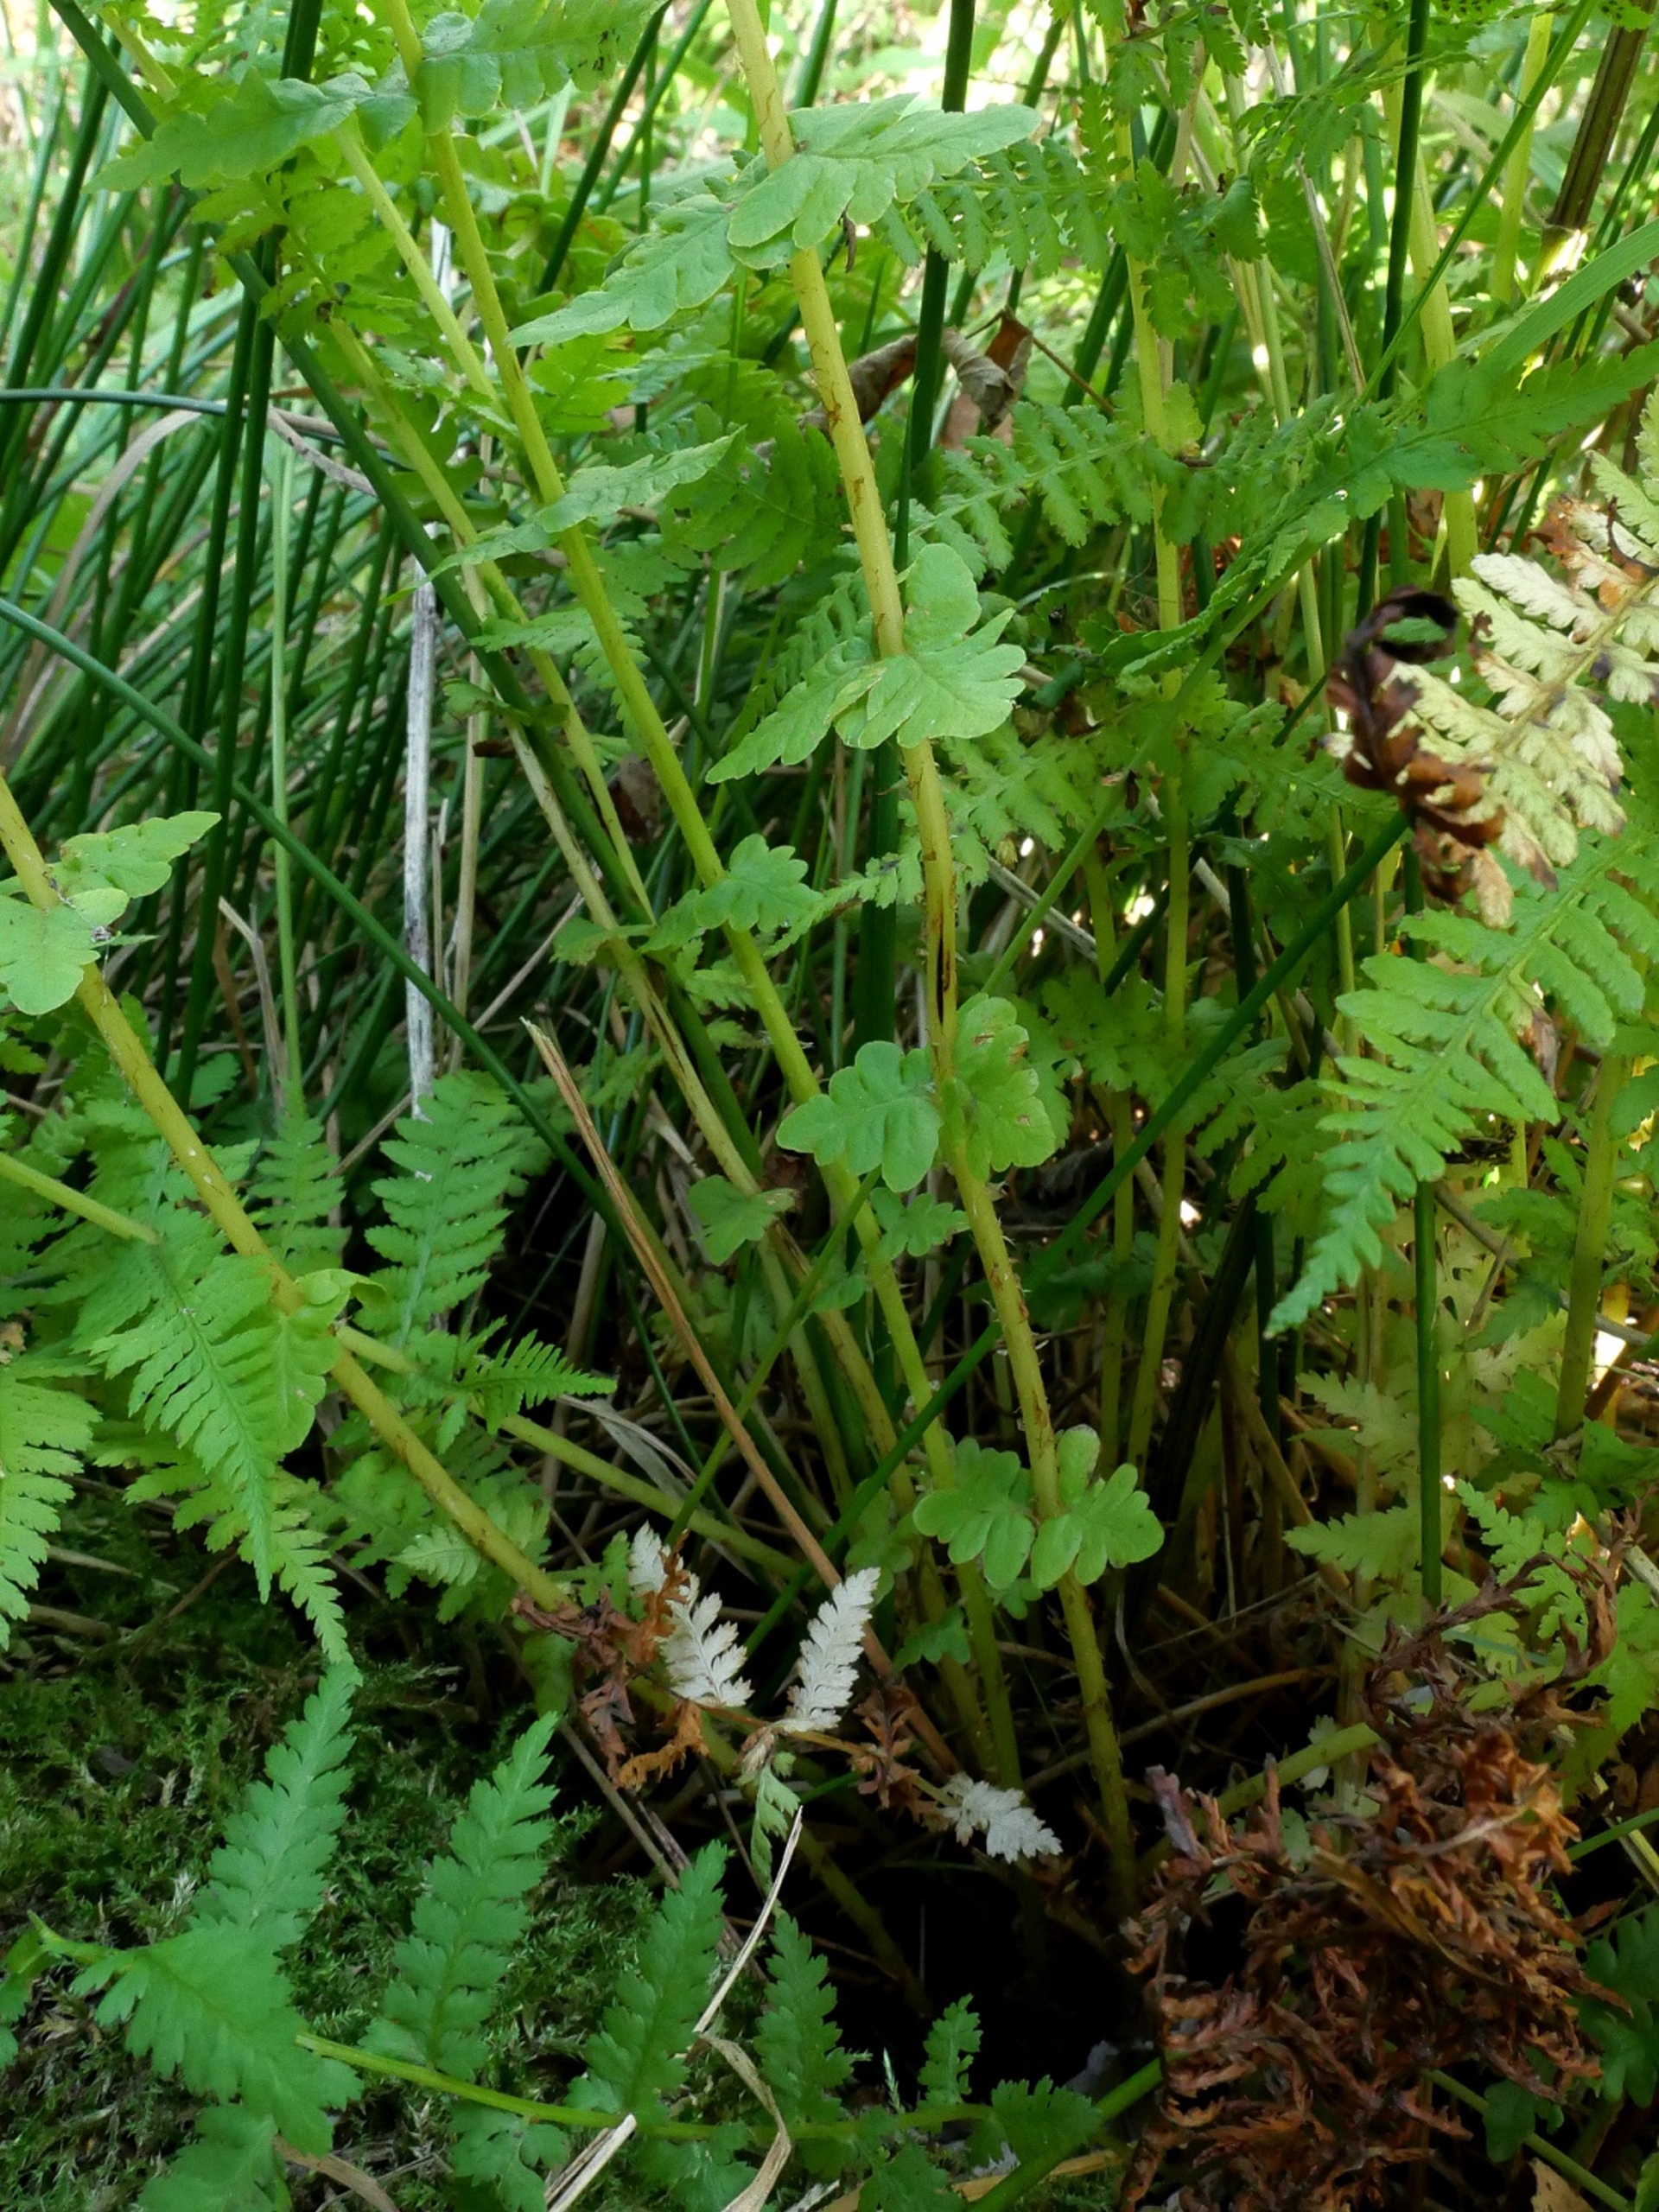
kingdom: Plantae
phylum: Tracheophyta
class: Polypodiopsida
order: Polypodiales
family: Thelypteridaceae
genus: Oreopteris
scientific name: Oreopteris limbosperma
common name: Bjergmangeløv
